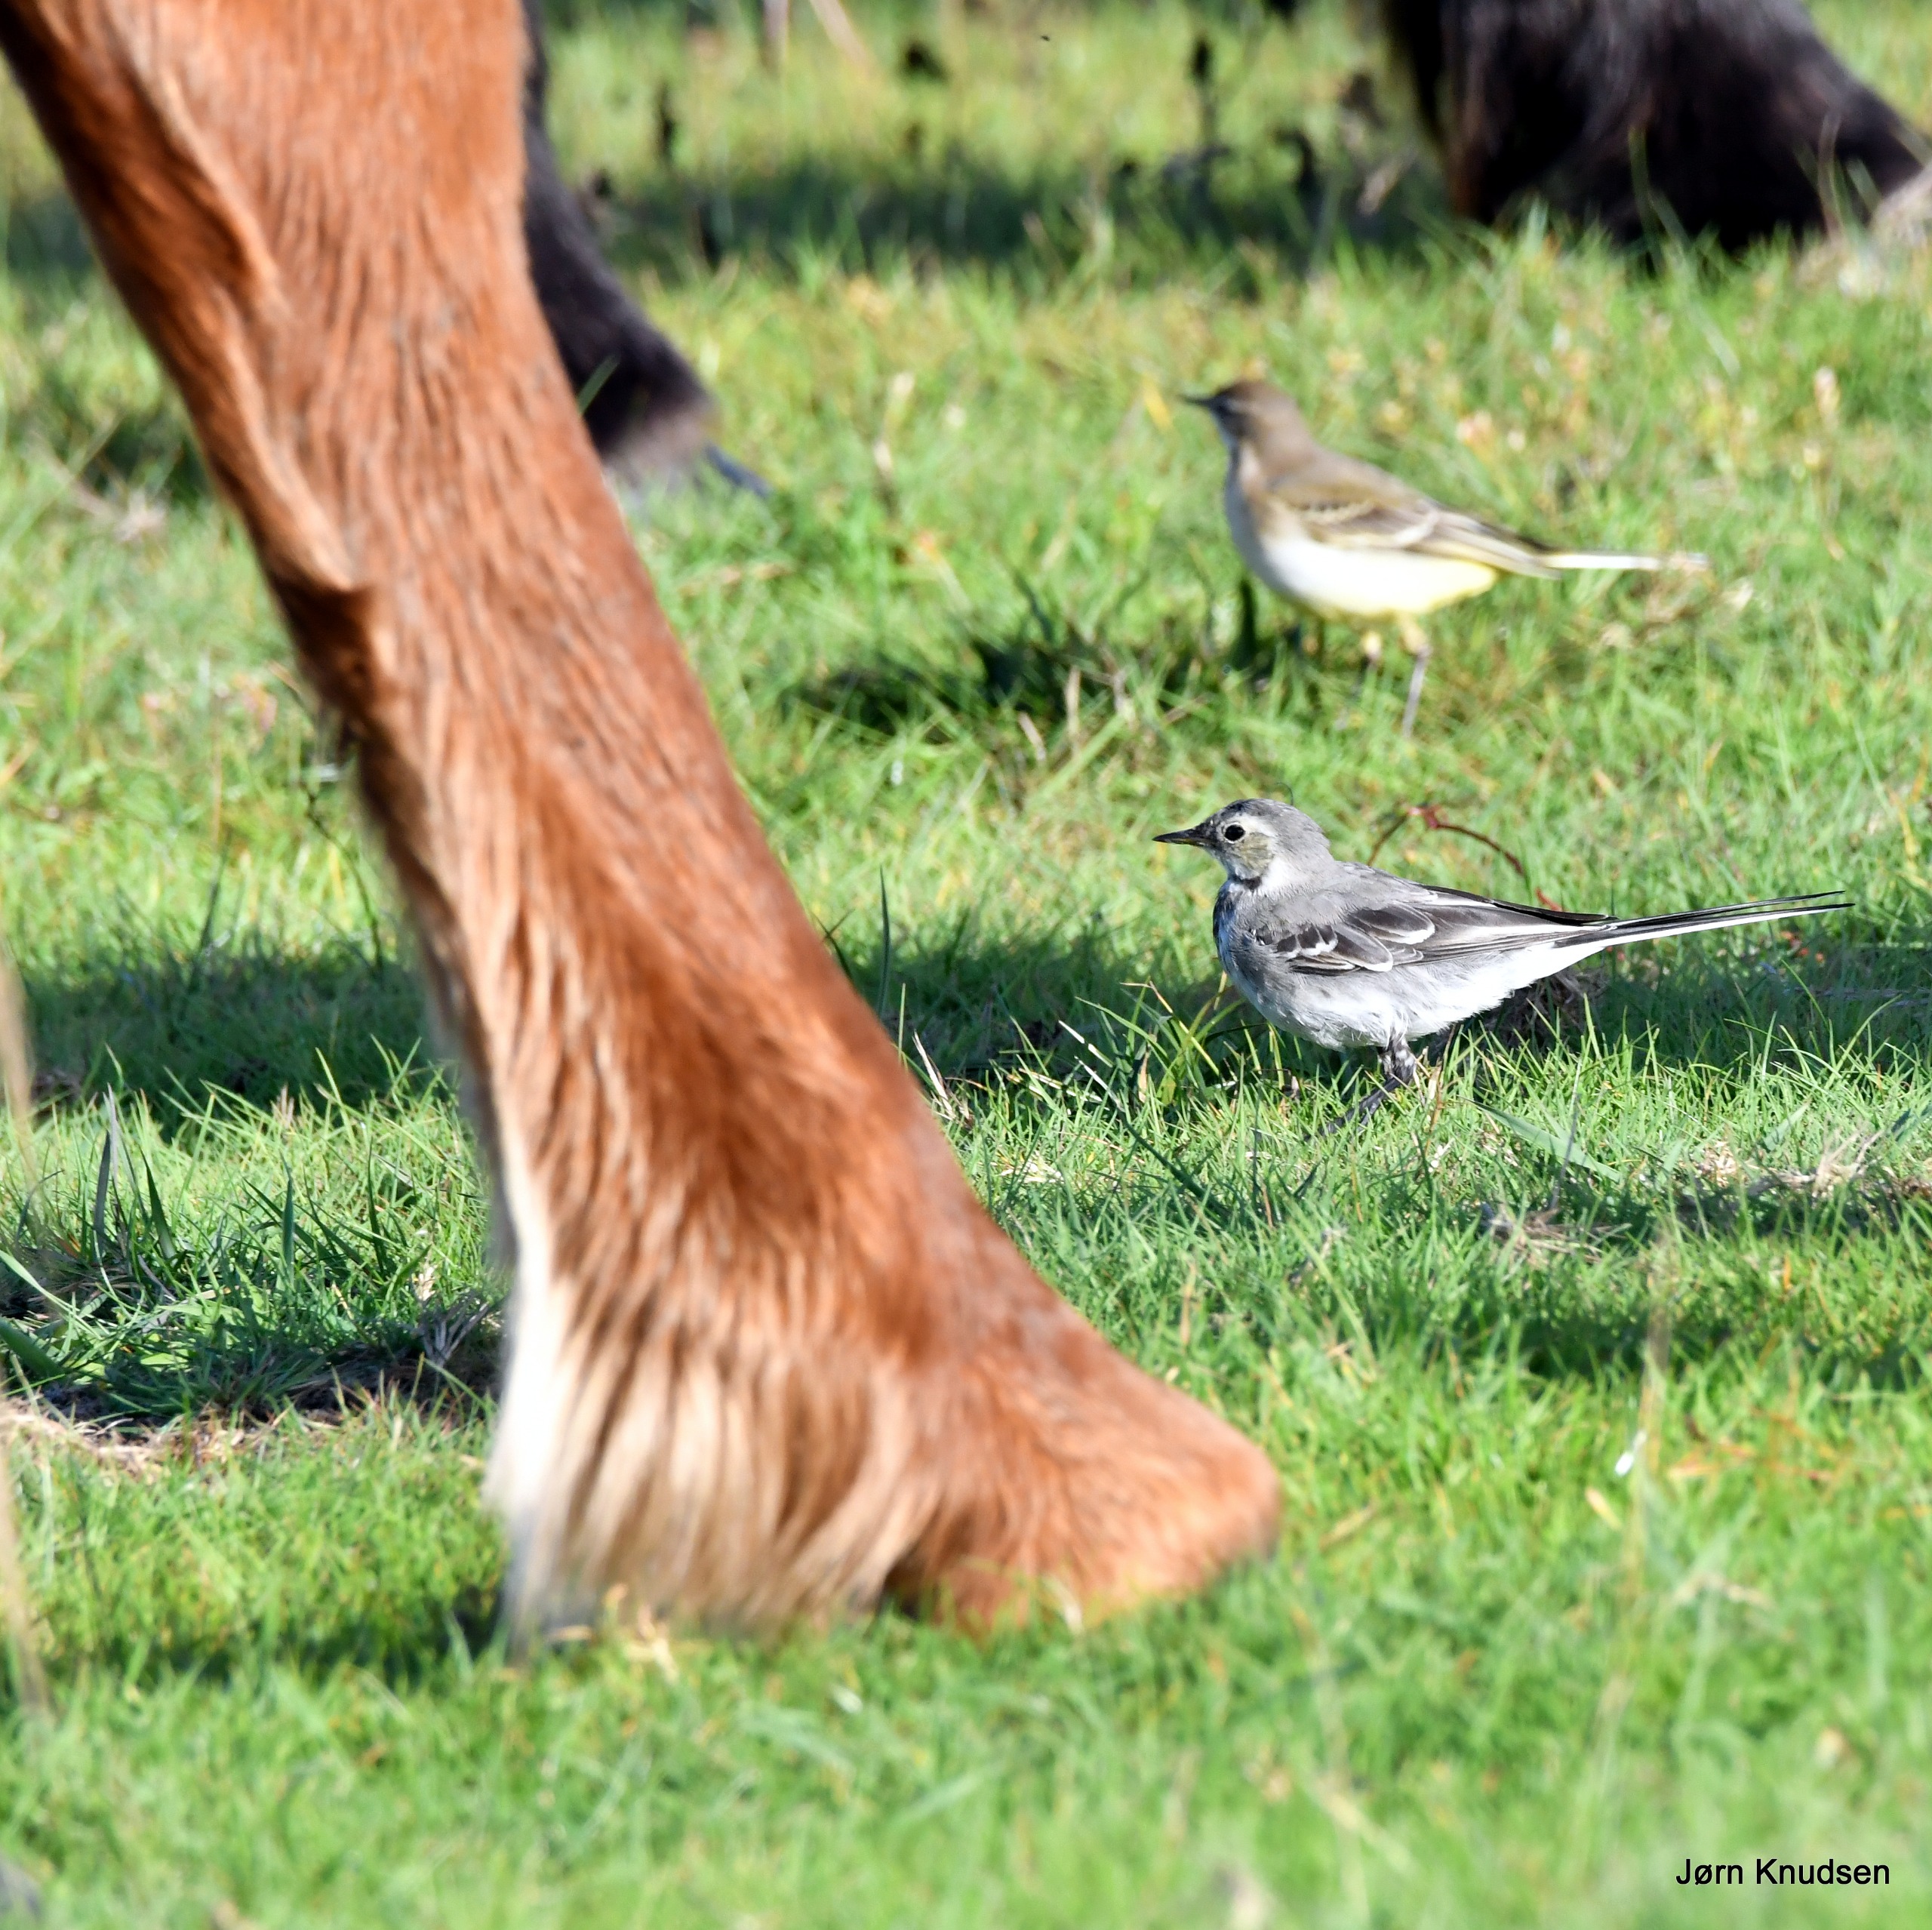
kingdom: Animalia
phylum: Chordata
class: Aves
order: Passeriformes
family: Motacillidae
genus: Motacilla
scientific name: Motacilla alba
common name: Hvid vipstjert
